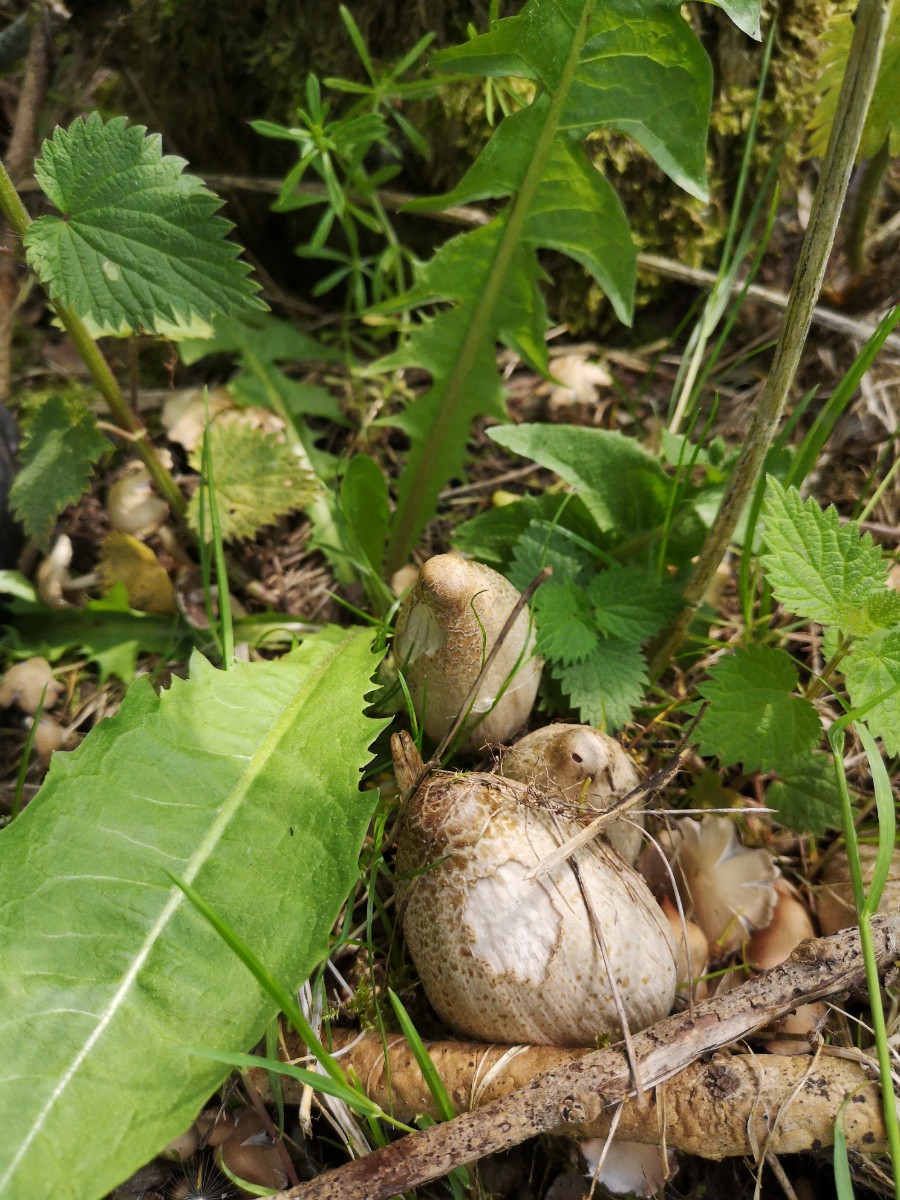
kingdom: Fungi
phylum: Basidiomycota
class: Agaricomycetes
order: Agaricales
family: Psathyrellaceae
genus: Coprinopsis
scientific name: Coprinopsis romagnesiana
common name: brunskællet blækhat
